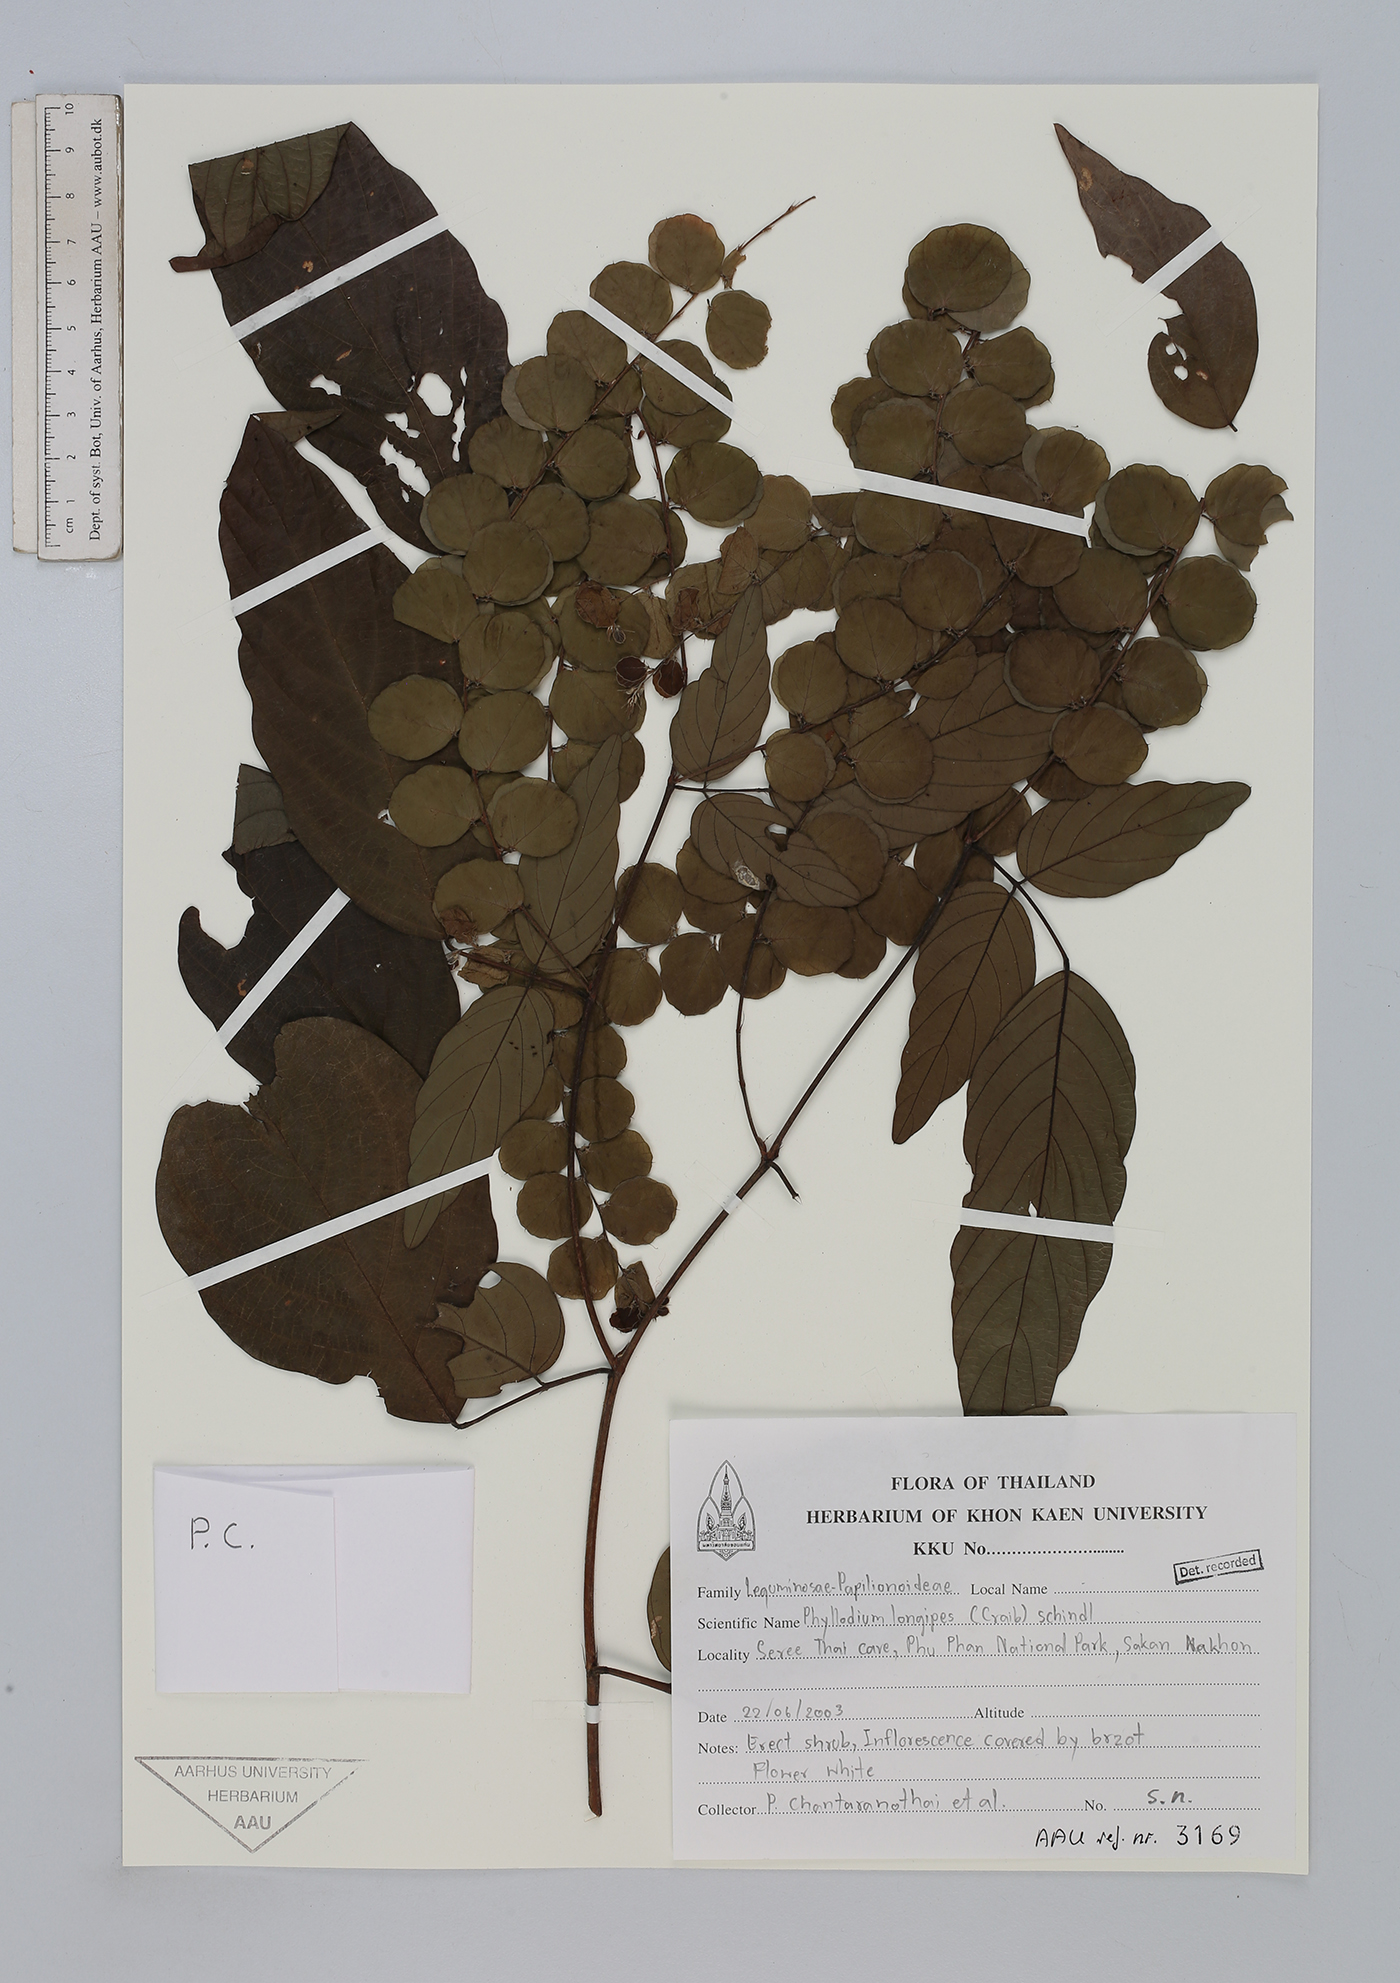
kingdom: Plantae
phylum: Tracheophyta
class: Magnoliopsida
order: Fabales
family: Fabaceae
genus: Phyllodium
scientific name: Phyllodium longipes
